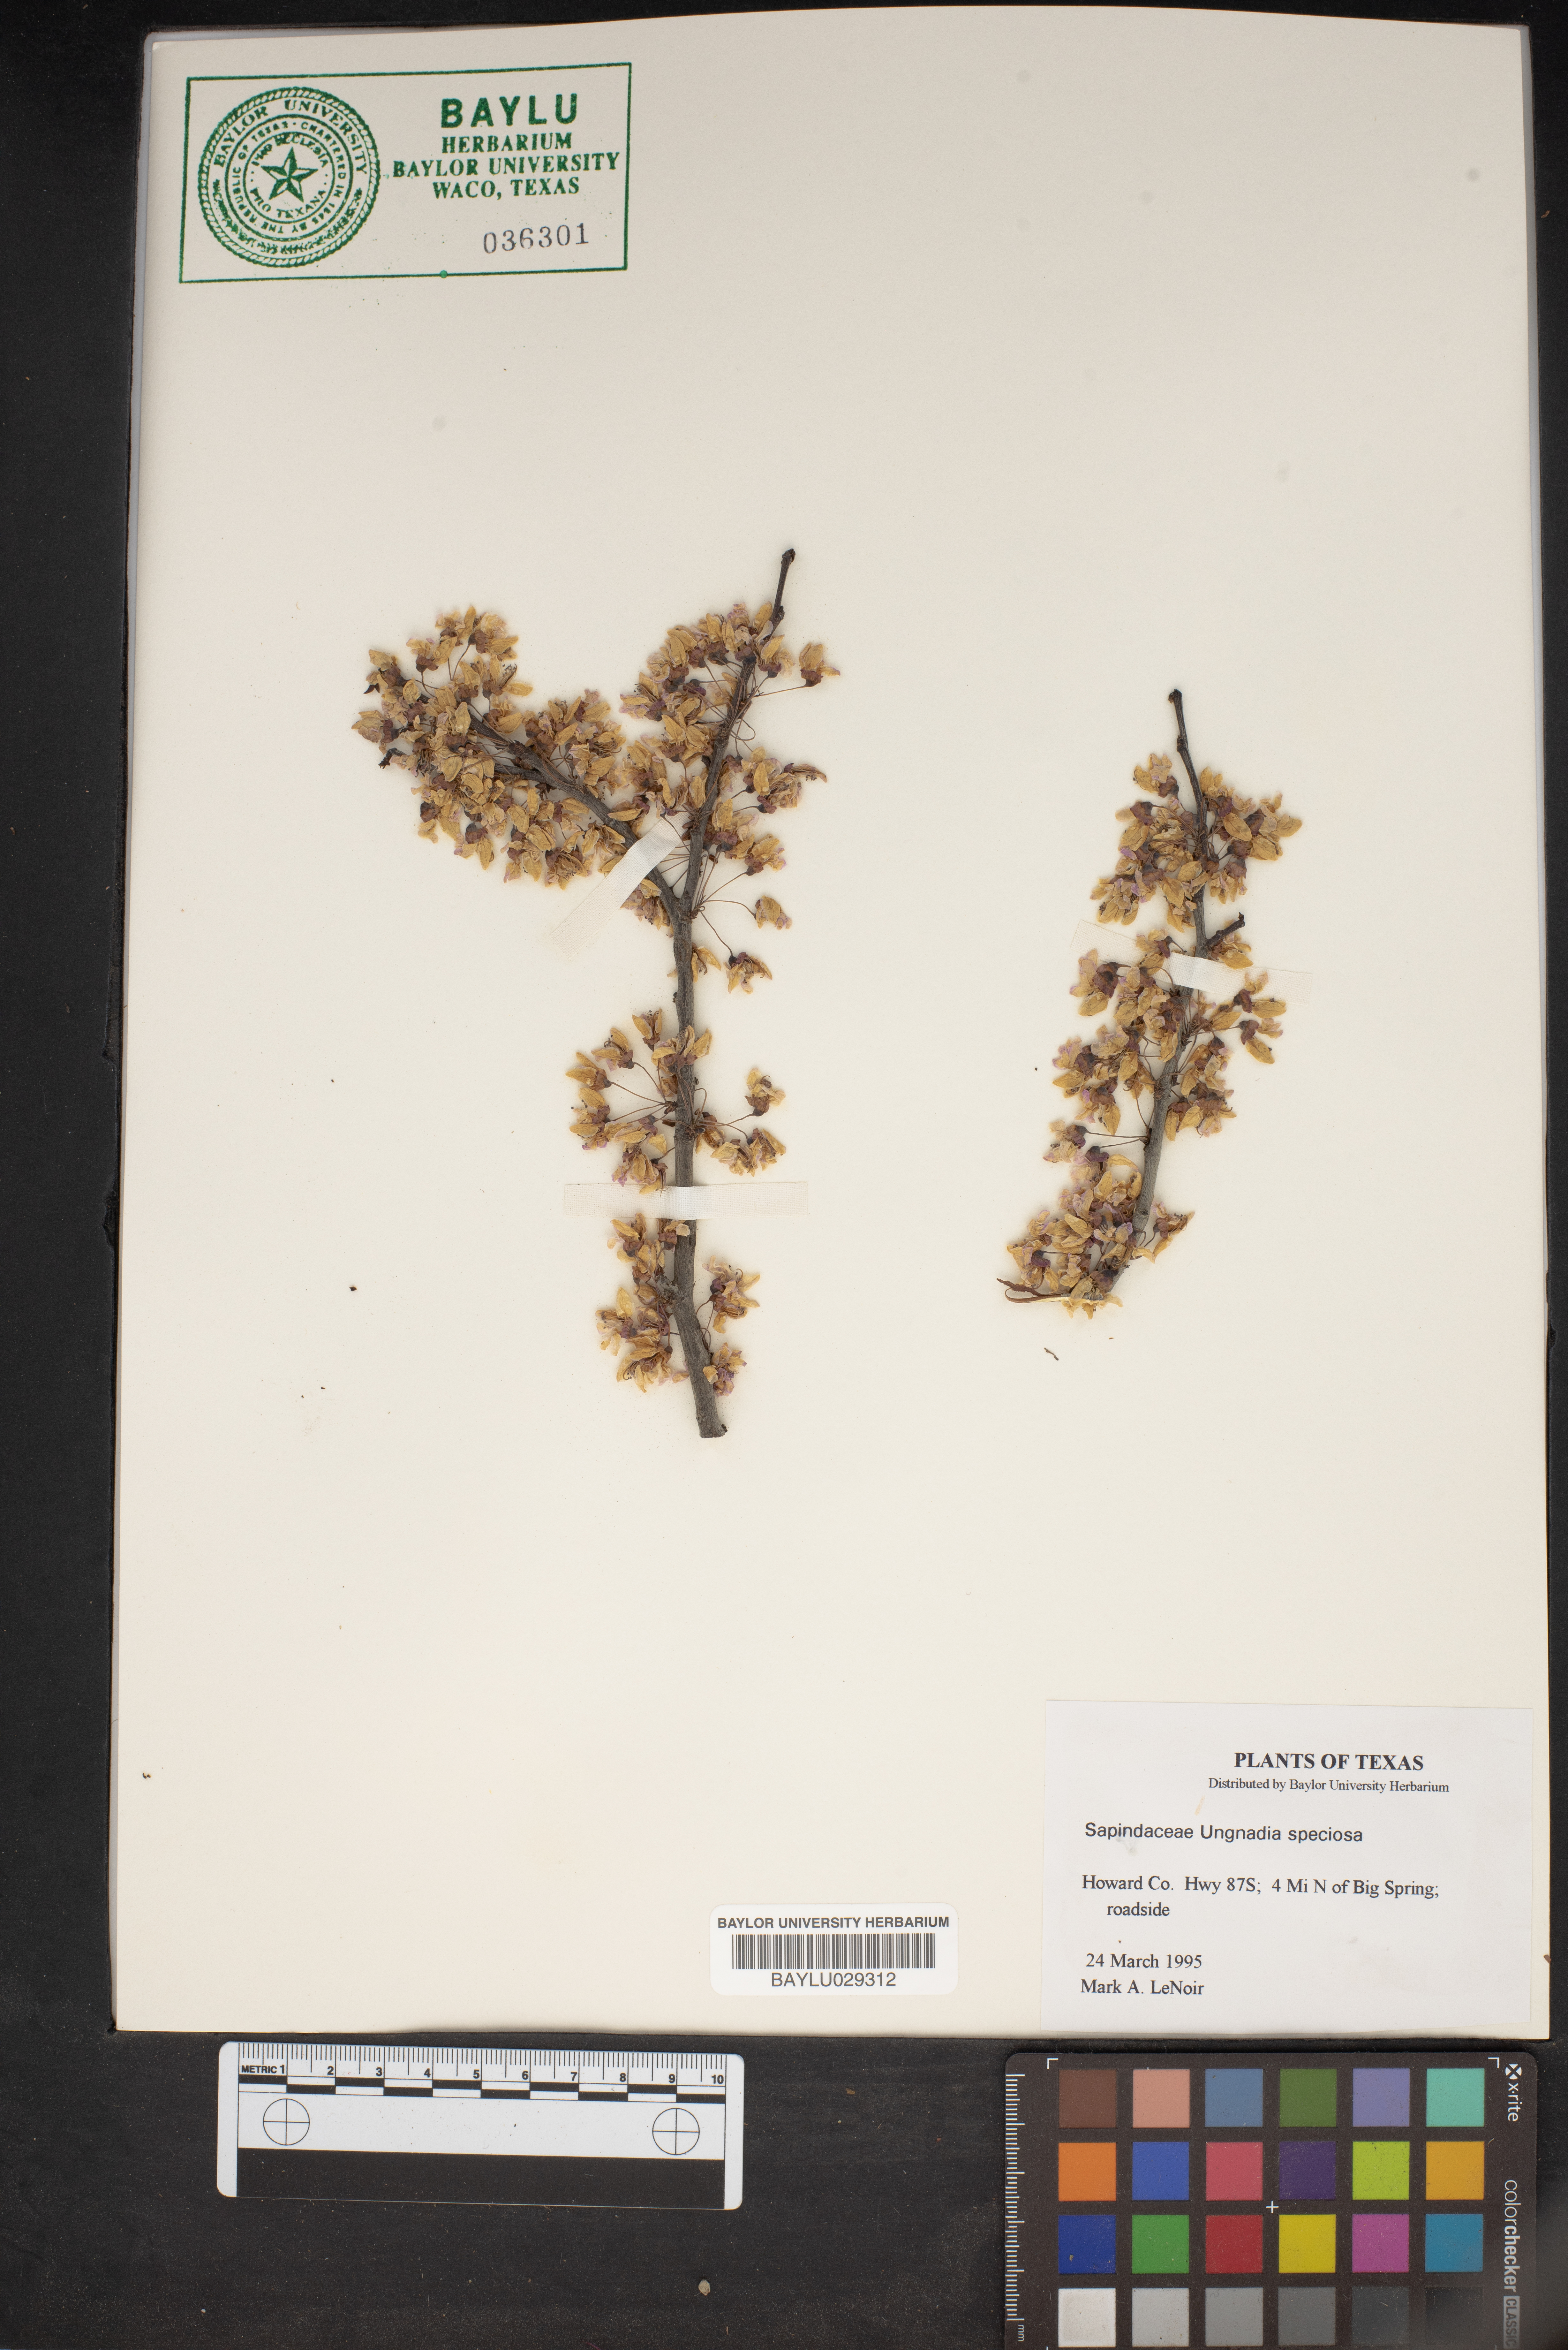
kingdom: Plantae
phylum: Tracheophyta
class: Magnoliopsida
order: Sapindales
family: Sapindaceae
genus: Ungnadia
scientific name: Ungnadia speciosa
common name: Texas-buckeye
